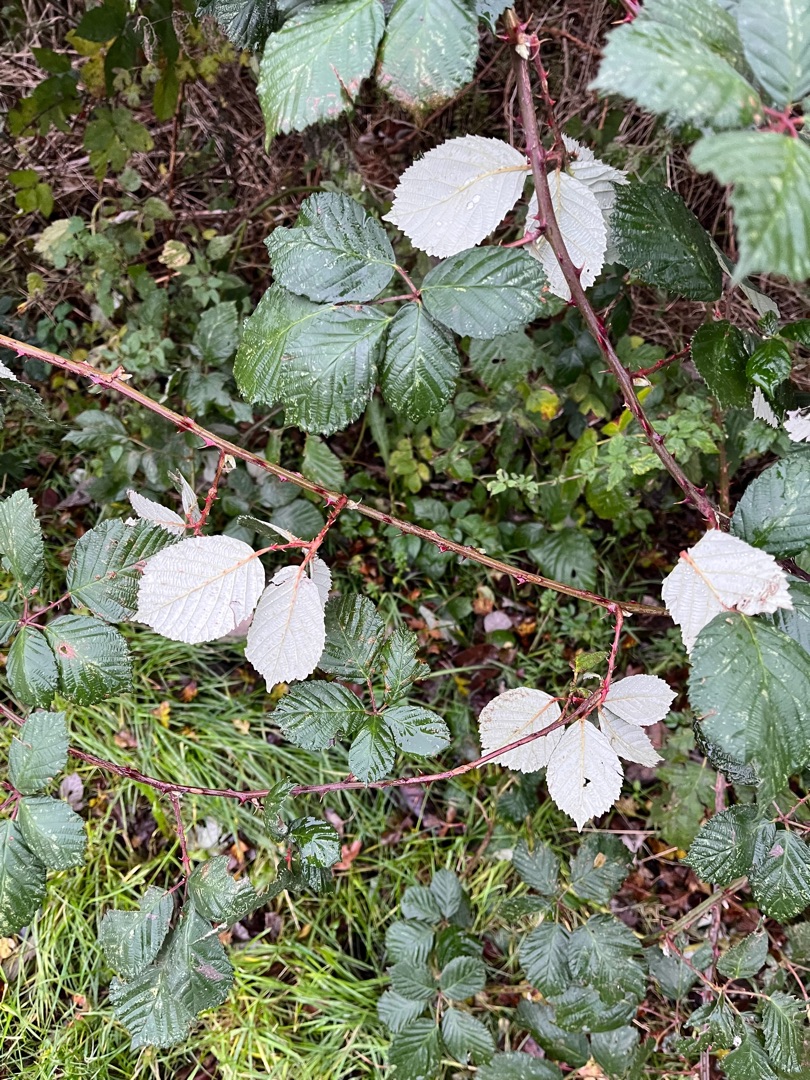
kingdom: Plantae
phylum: Tracheophyta
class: Magnoliopsida
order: Rosales
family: Rosaceae
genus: Rubus
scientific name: Rubus armeniacus
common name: Armensk brombær
